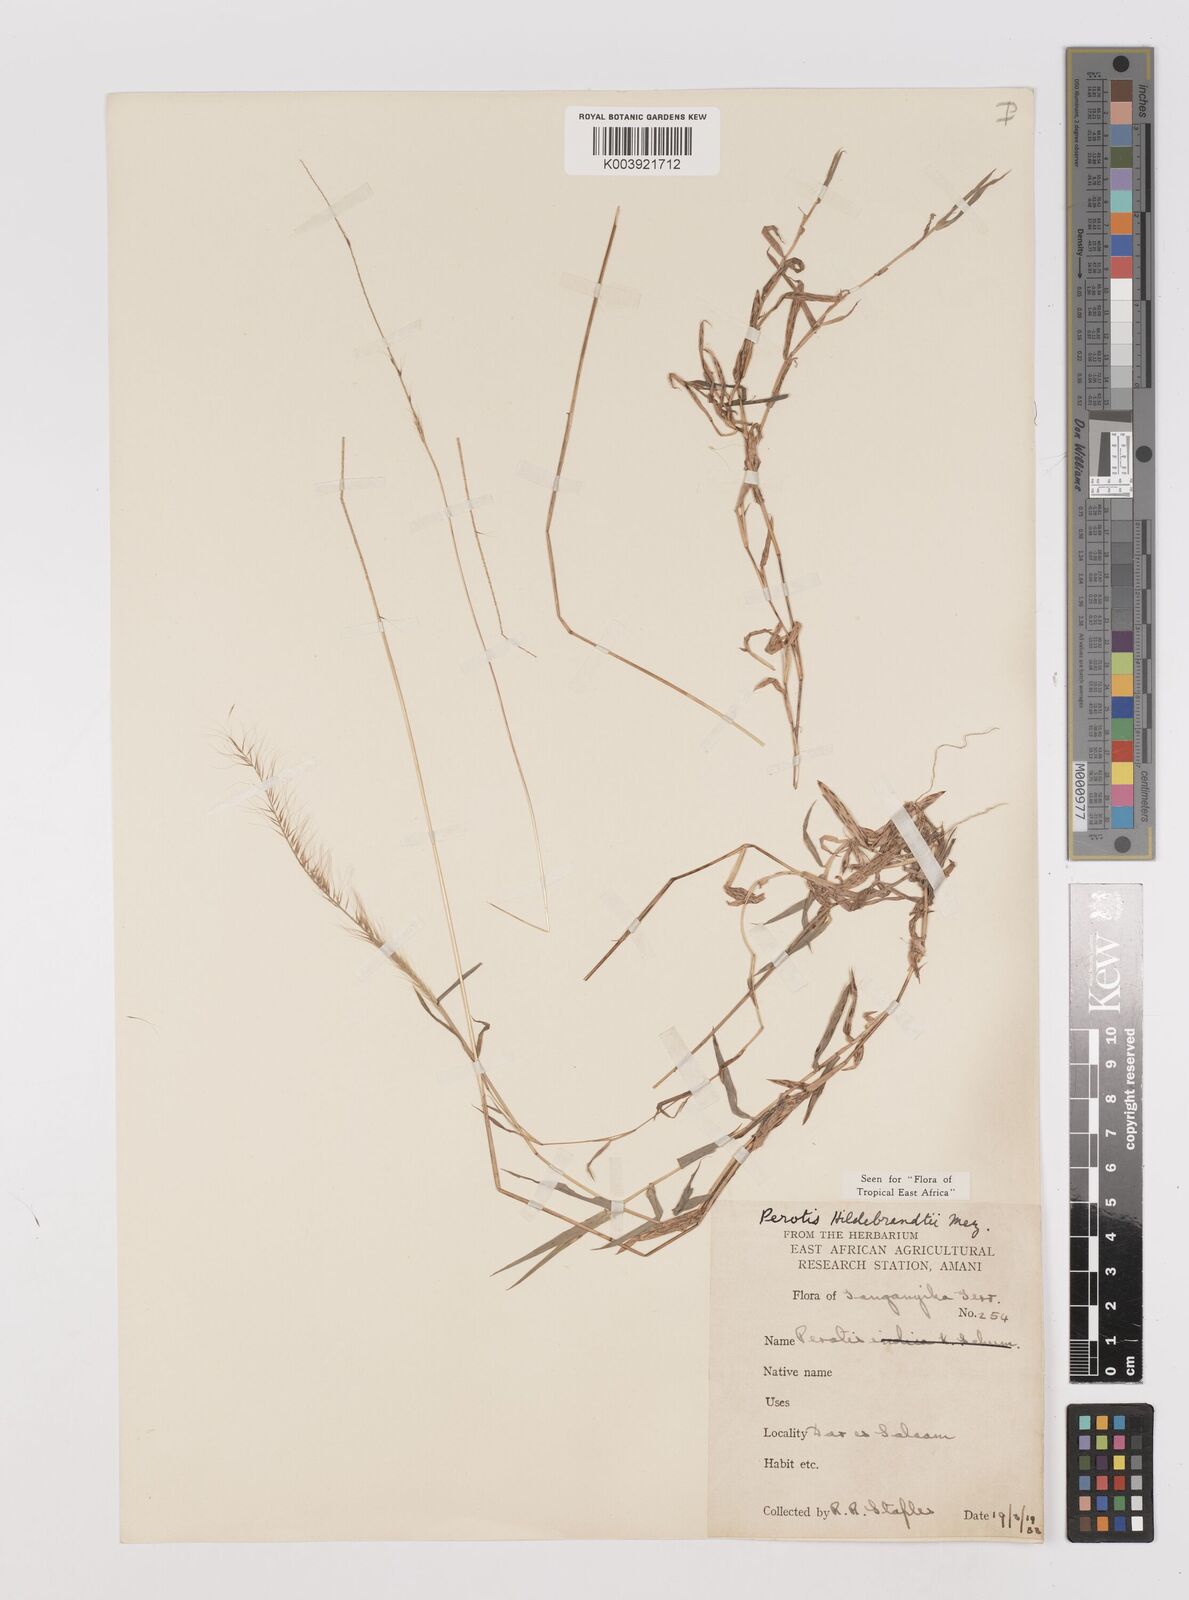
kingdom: Plantae
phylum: Tracheophyta
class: Liliopsida
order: Poales
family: Poaceae
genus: Perotis
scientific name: Perotis hildebrandtii
